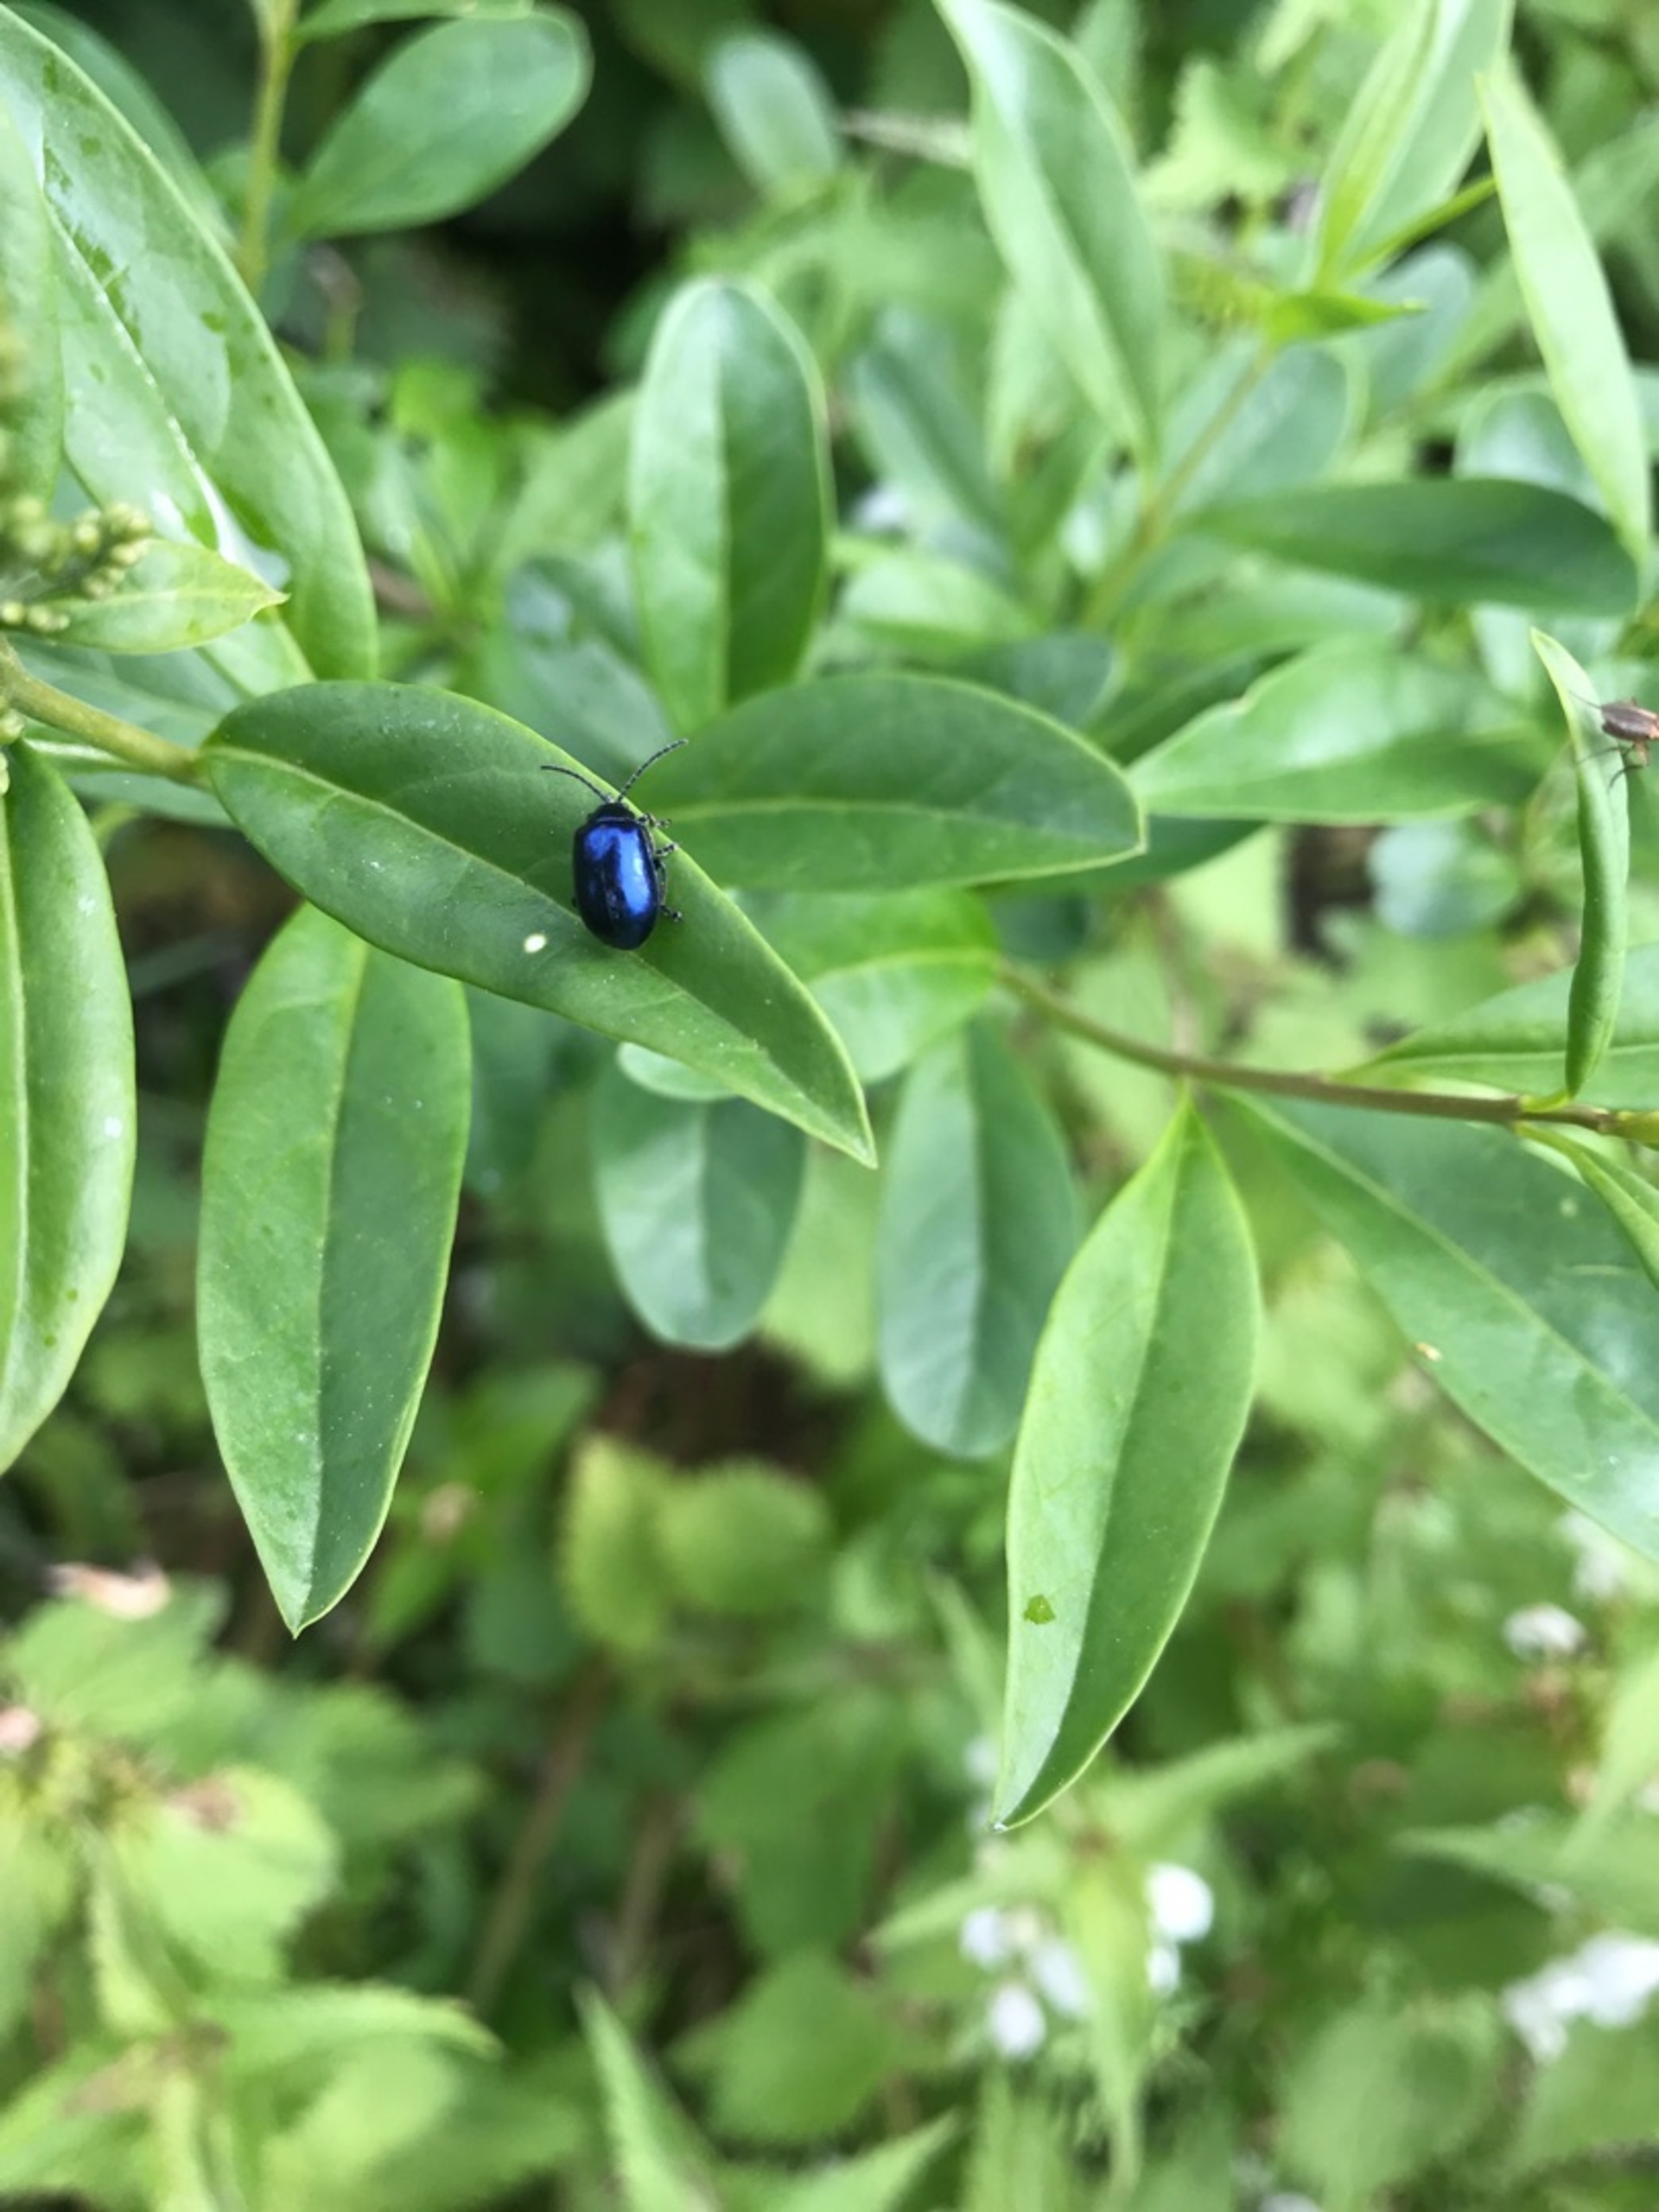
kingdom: Animalia
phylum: Arthropoda
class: Insecta
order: Coleoptera
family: Chrysomelidae
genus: Agelastica
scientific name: Agelastica alni
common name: Ellebladbille
